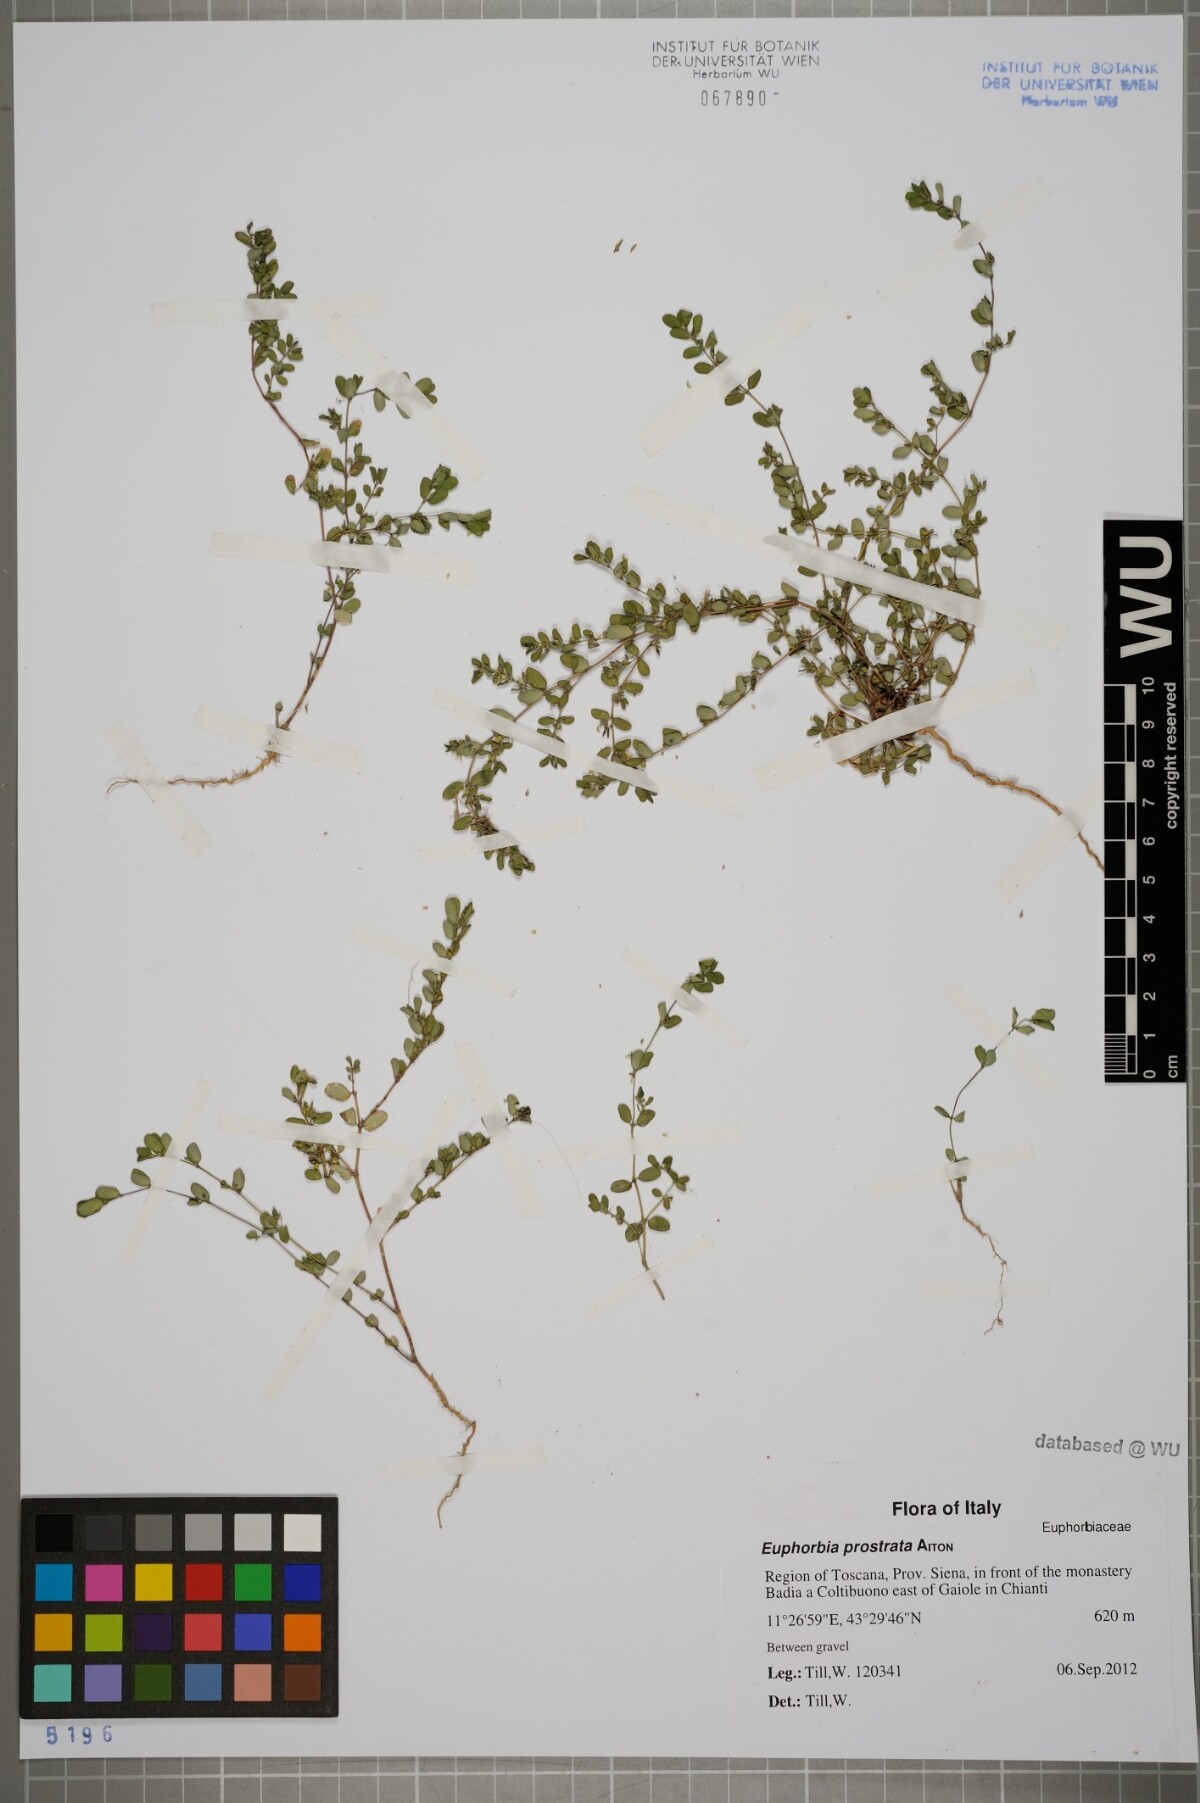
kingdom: Plantae
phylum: Tracheophyta
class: Magnoliopsida
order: Malpighiales
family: Euphorbiaceae
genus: Euphorbia
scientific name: Euphorbia prostrata
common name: Prostrate sandmat
